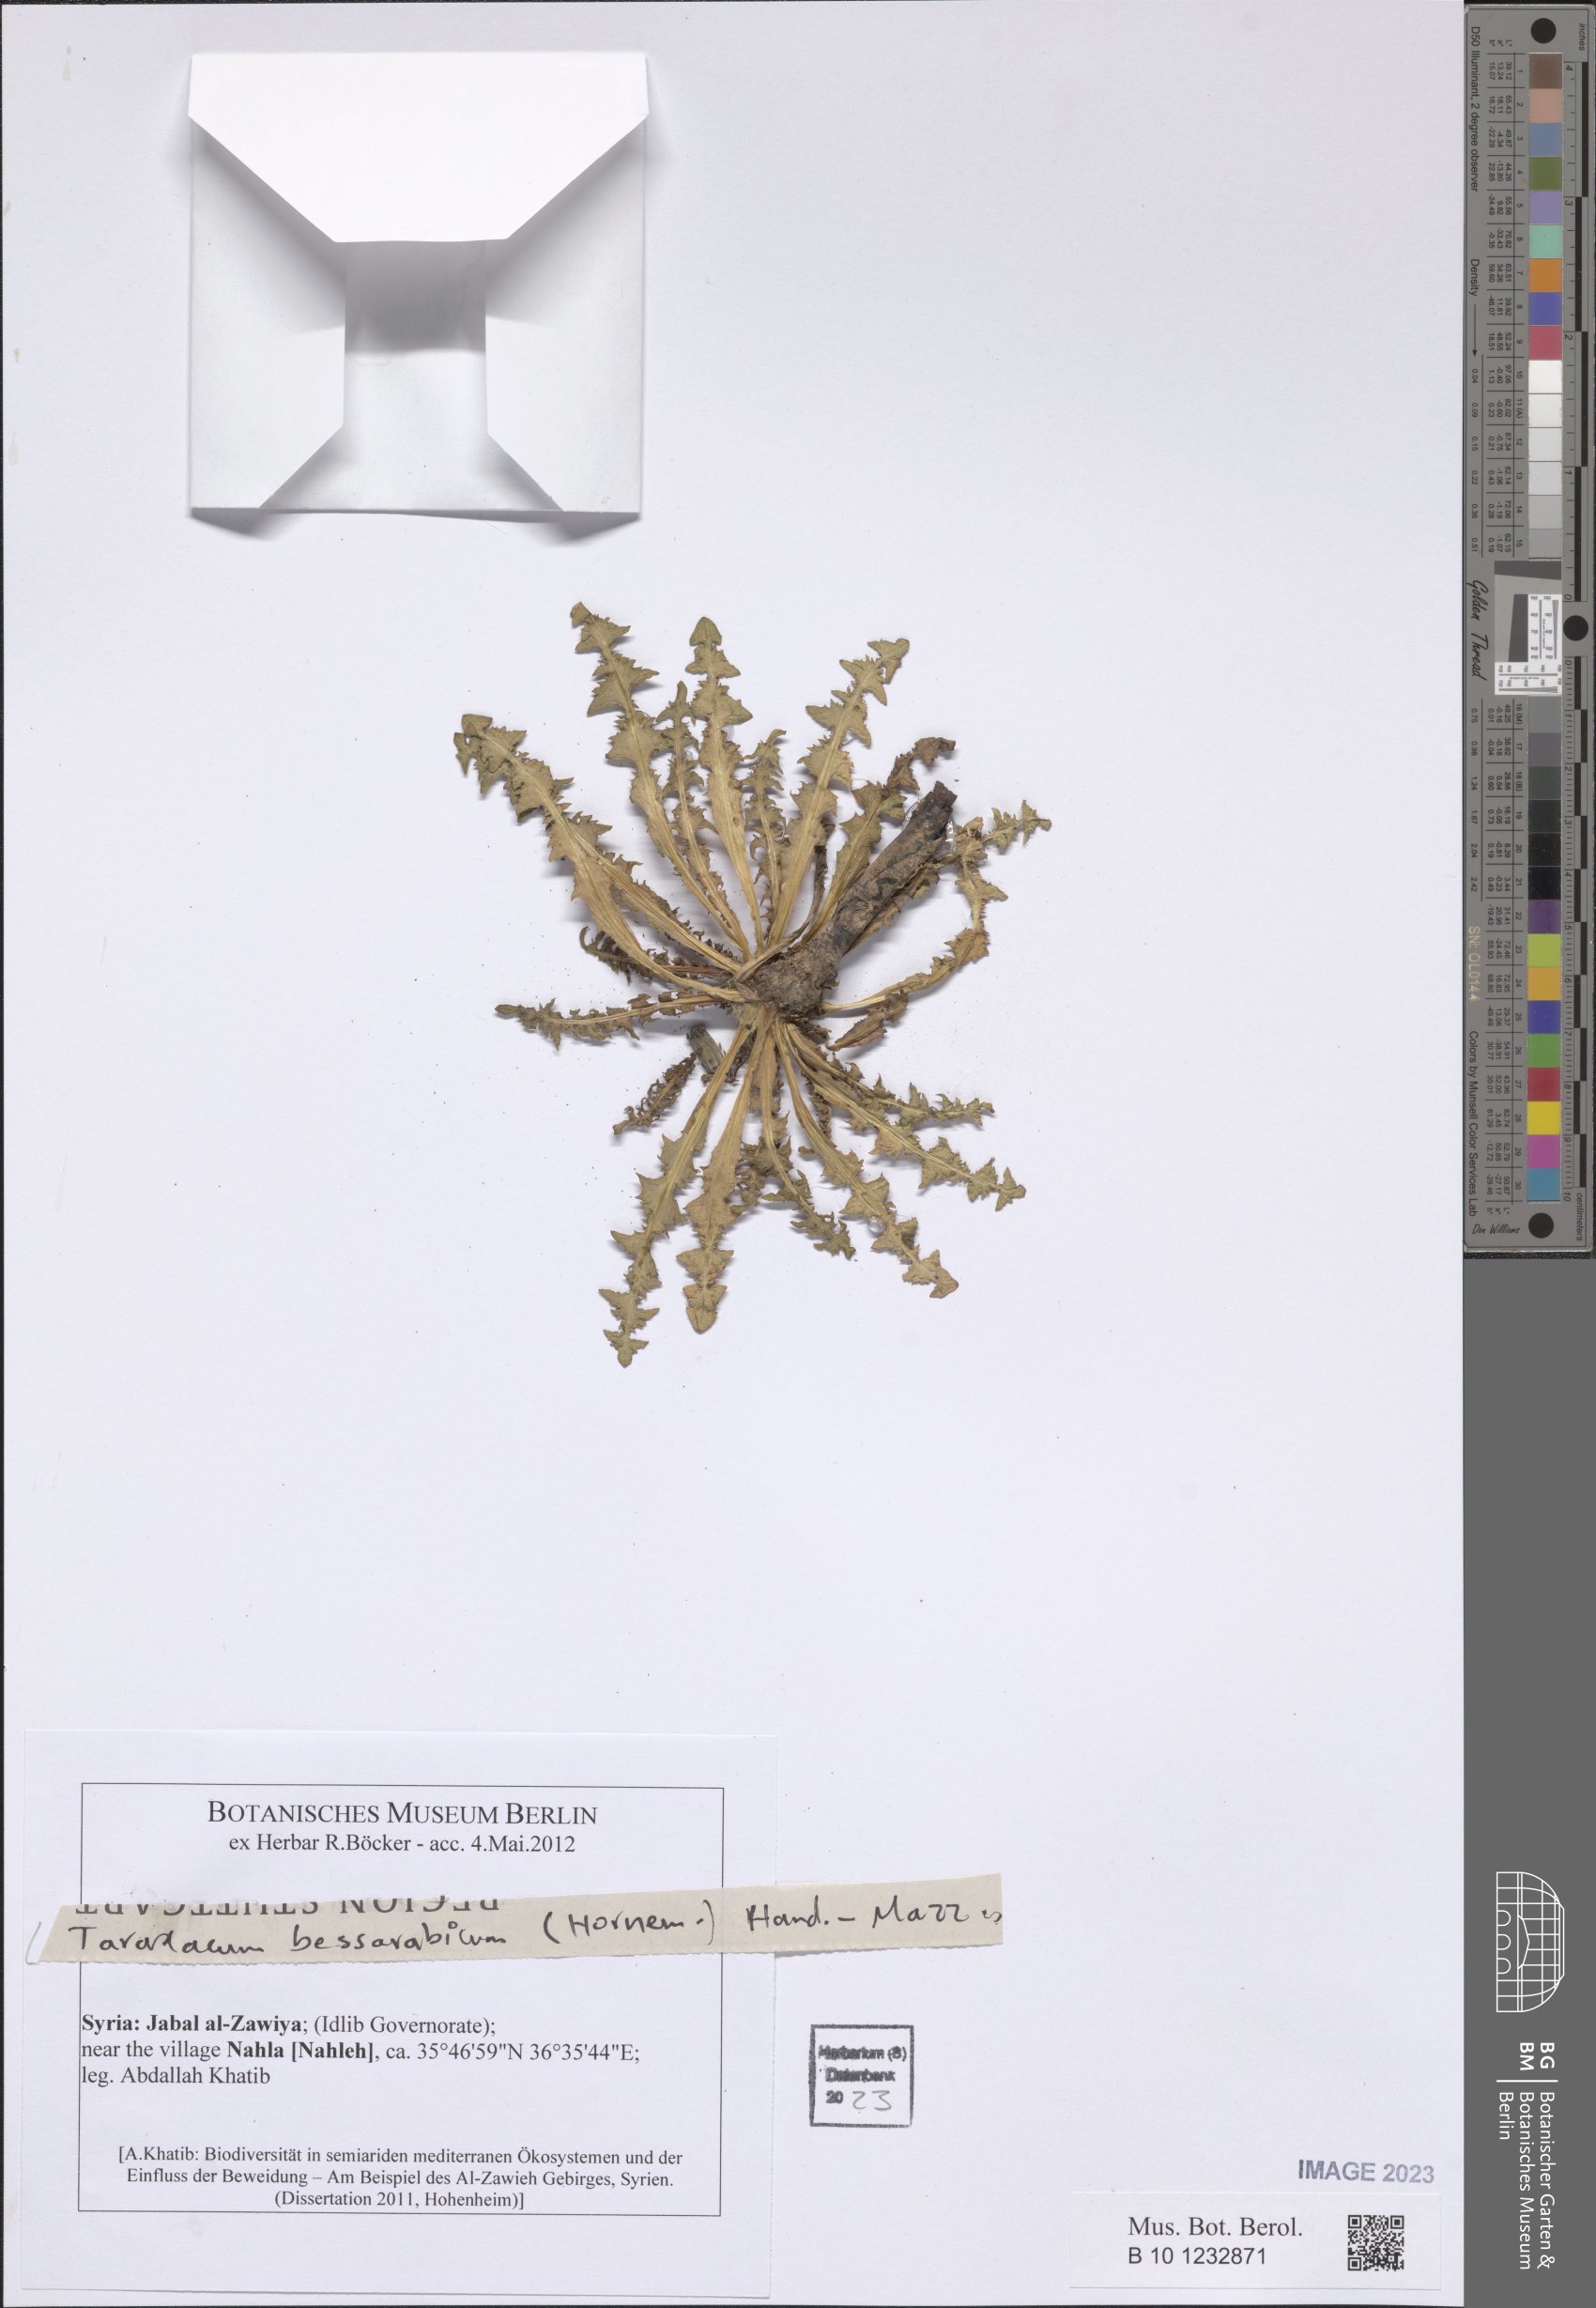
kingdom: Plantae
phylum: Tracheophyta
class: Magnoliopsida
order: Asterales
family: Asteraceae
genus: Taraxacum
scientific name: Taraxacum bessarabicum
